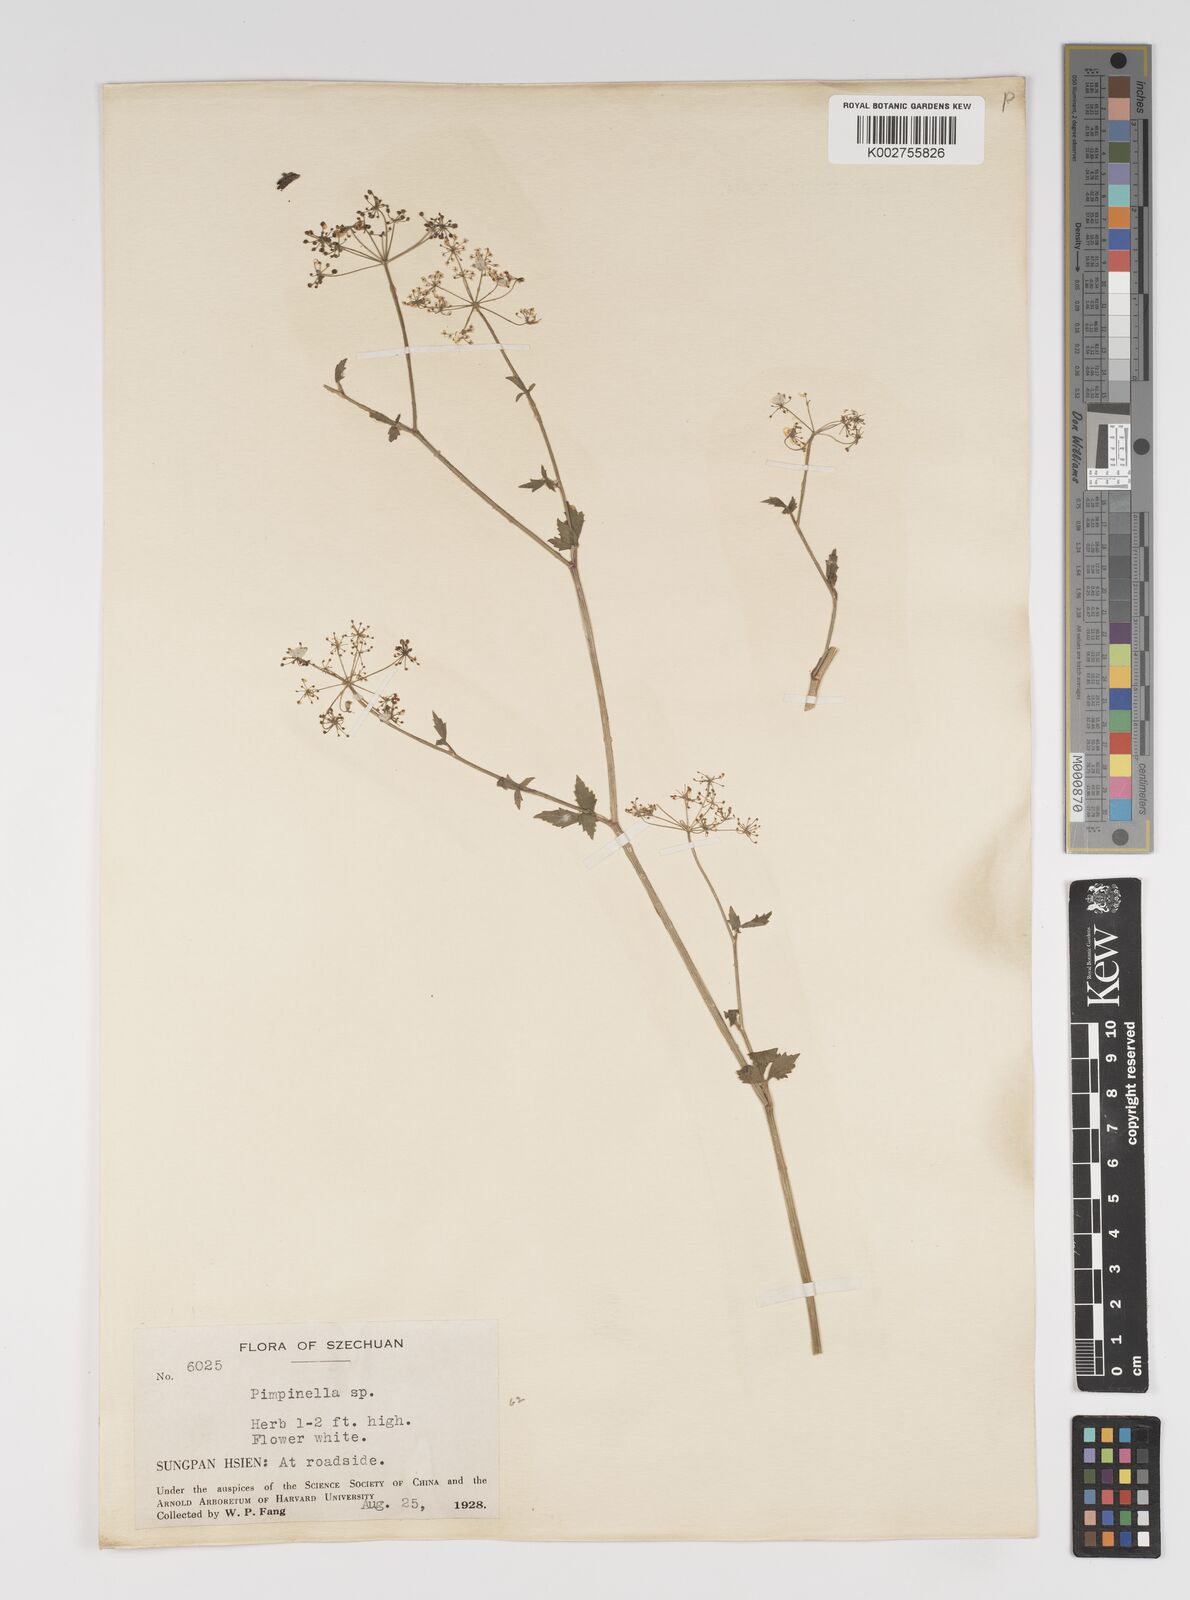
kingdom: Plantae
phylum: Tracheophyta
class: Magnoliopsida
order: Apiales
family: Apiaceae
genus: Pimpinella
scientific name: Pimpinella
